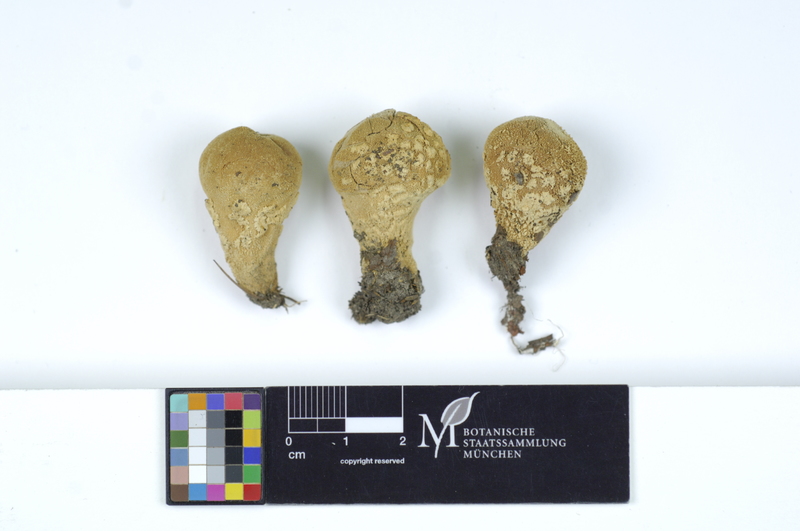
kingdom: Fungi
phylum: Basidiomycota
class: Agaricomycetes
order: Agaricales
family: Lycoperdaceae
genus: Lycoperdon
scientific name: Lycoperdon mammiforme
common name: Flaky puffball
